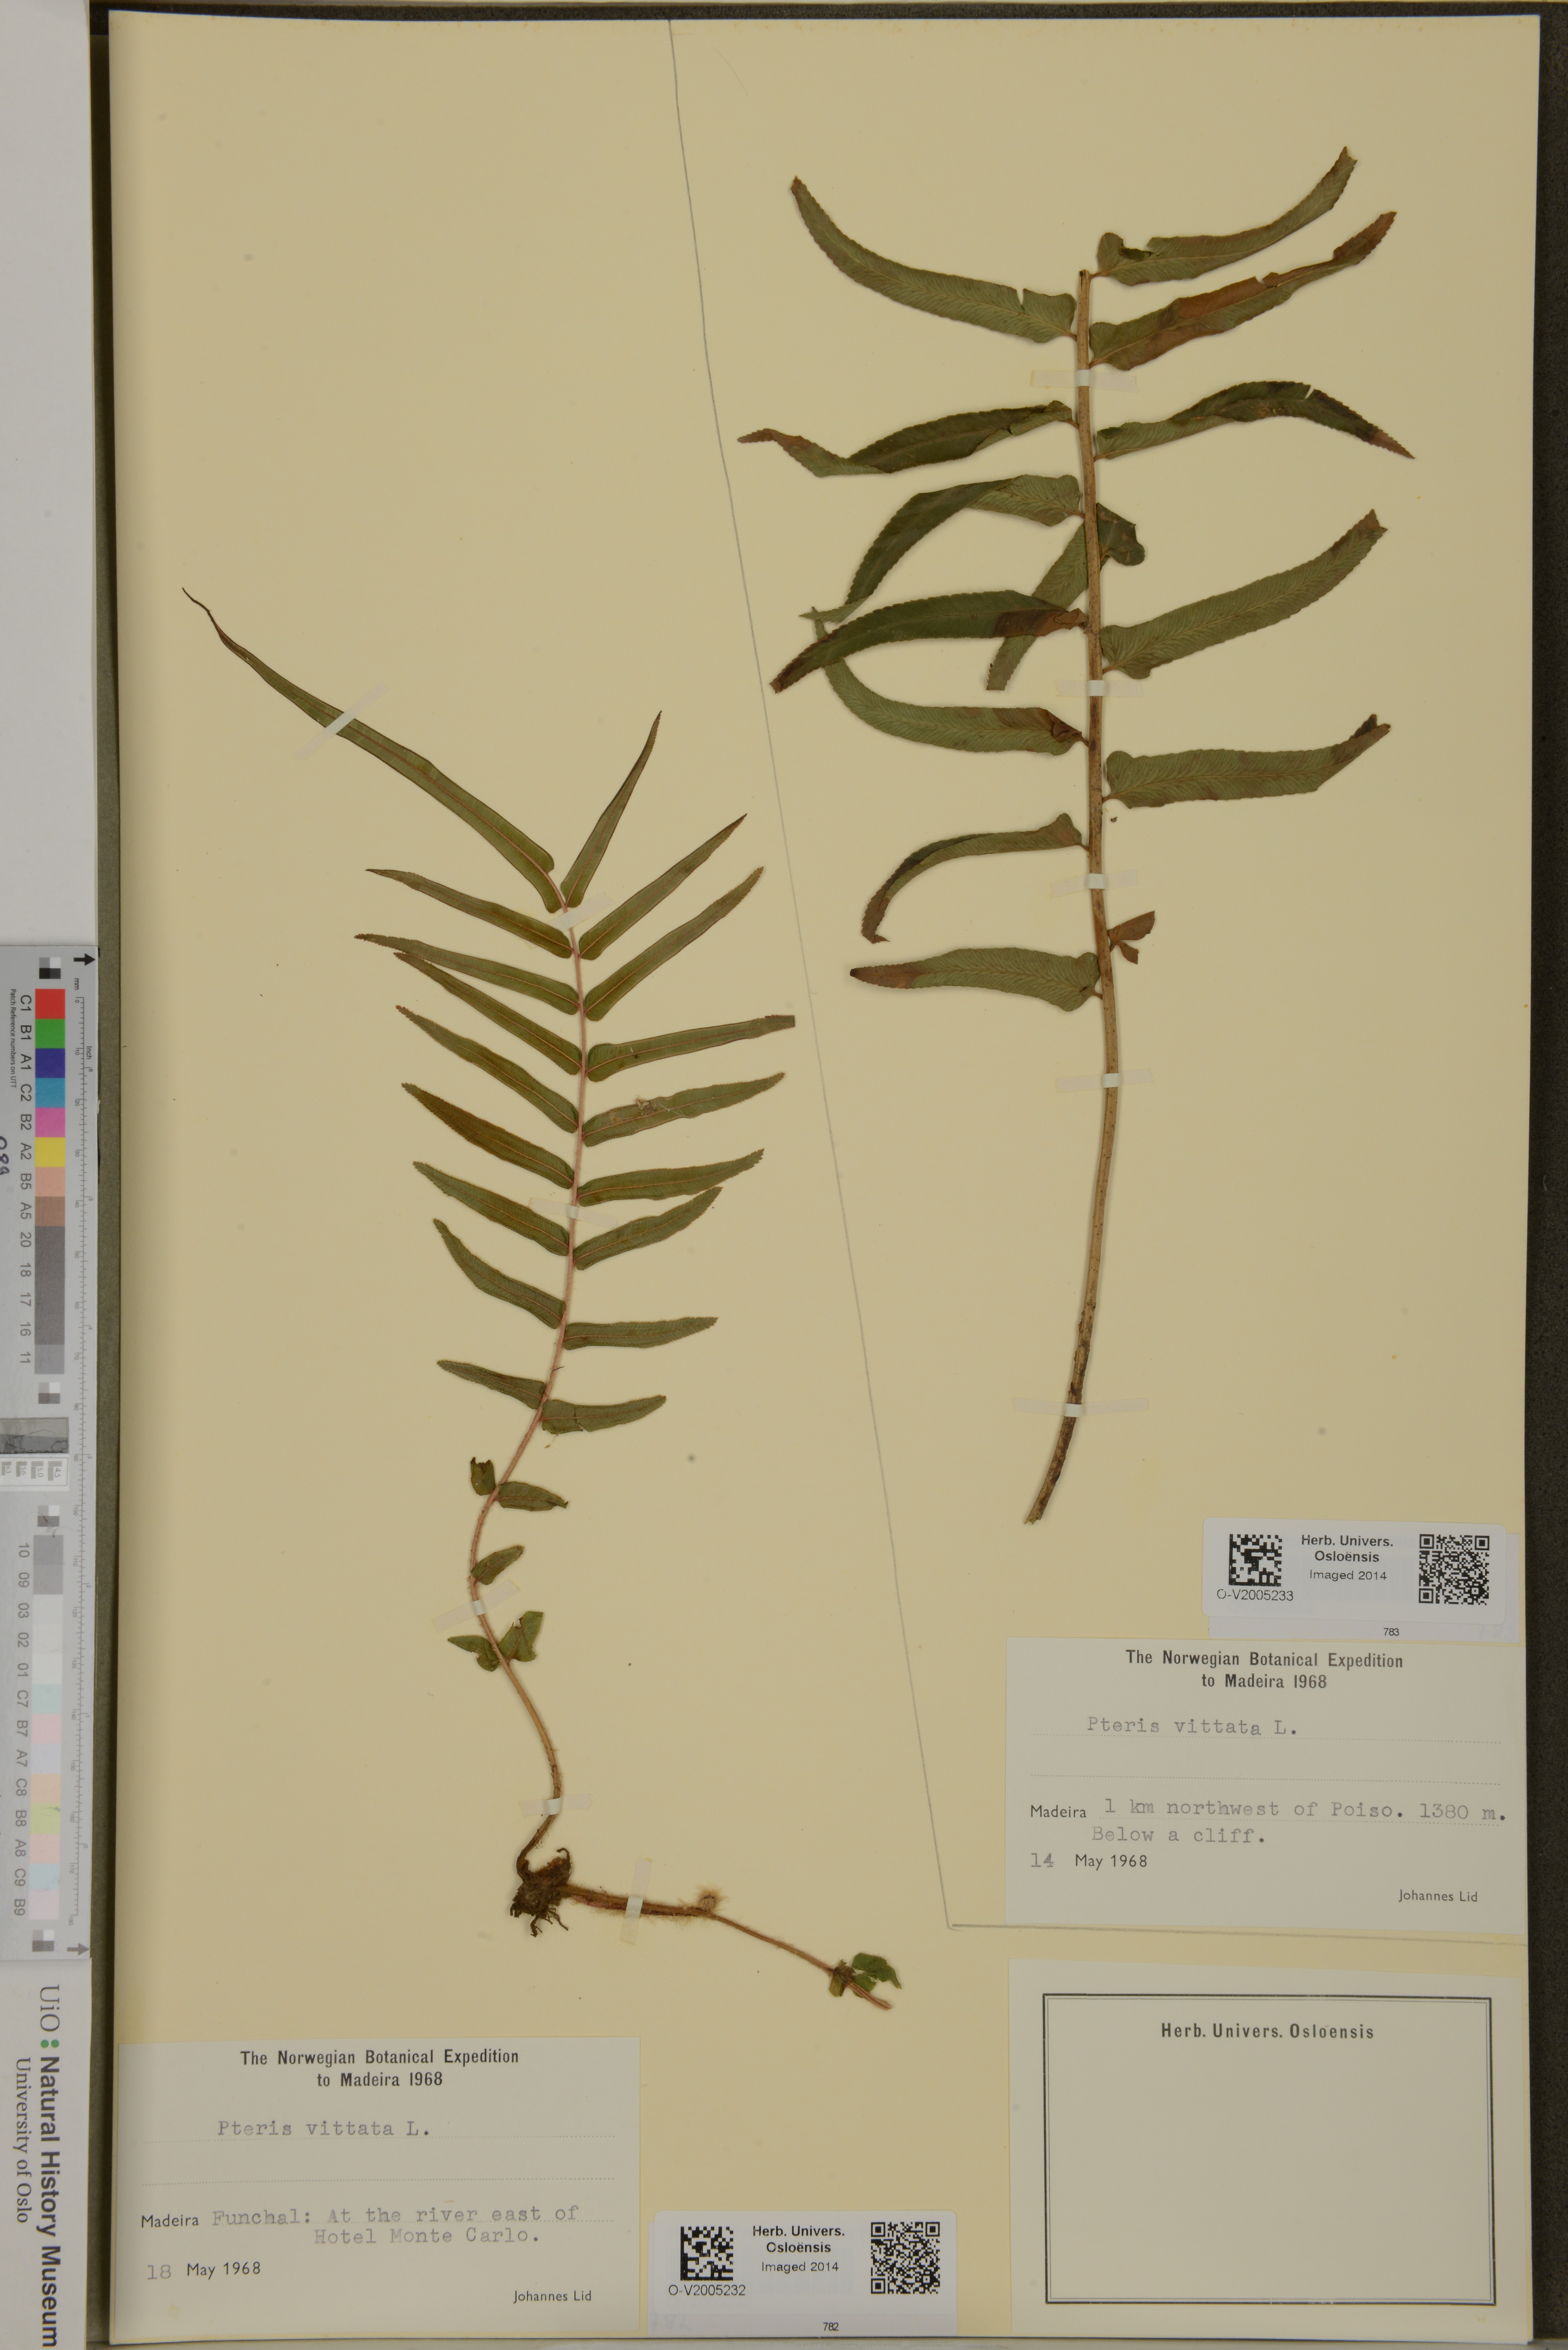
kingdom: Plantae
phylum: Tracheophyta
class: Polypodiopsida
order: Polypodiales
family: Pteridaceae
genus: Pteris
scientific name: Pteris vittata
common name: Ladder brake
